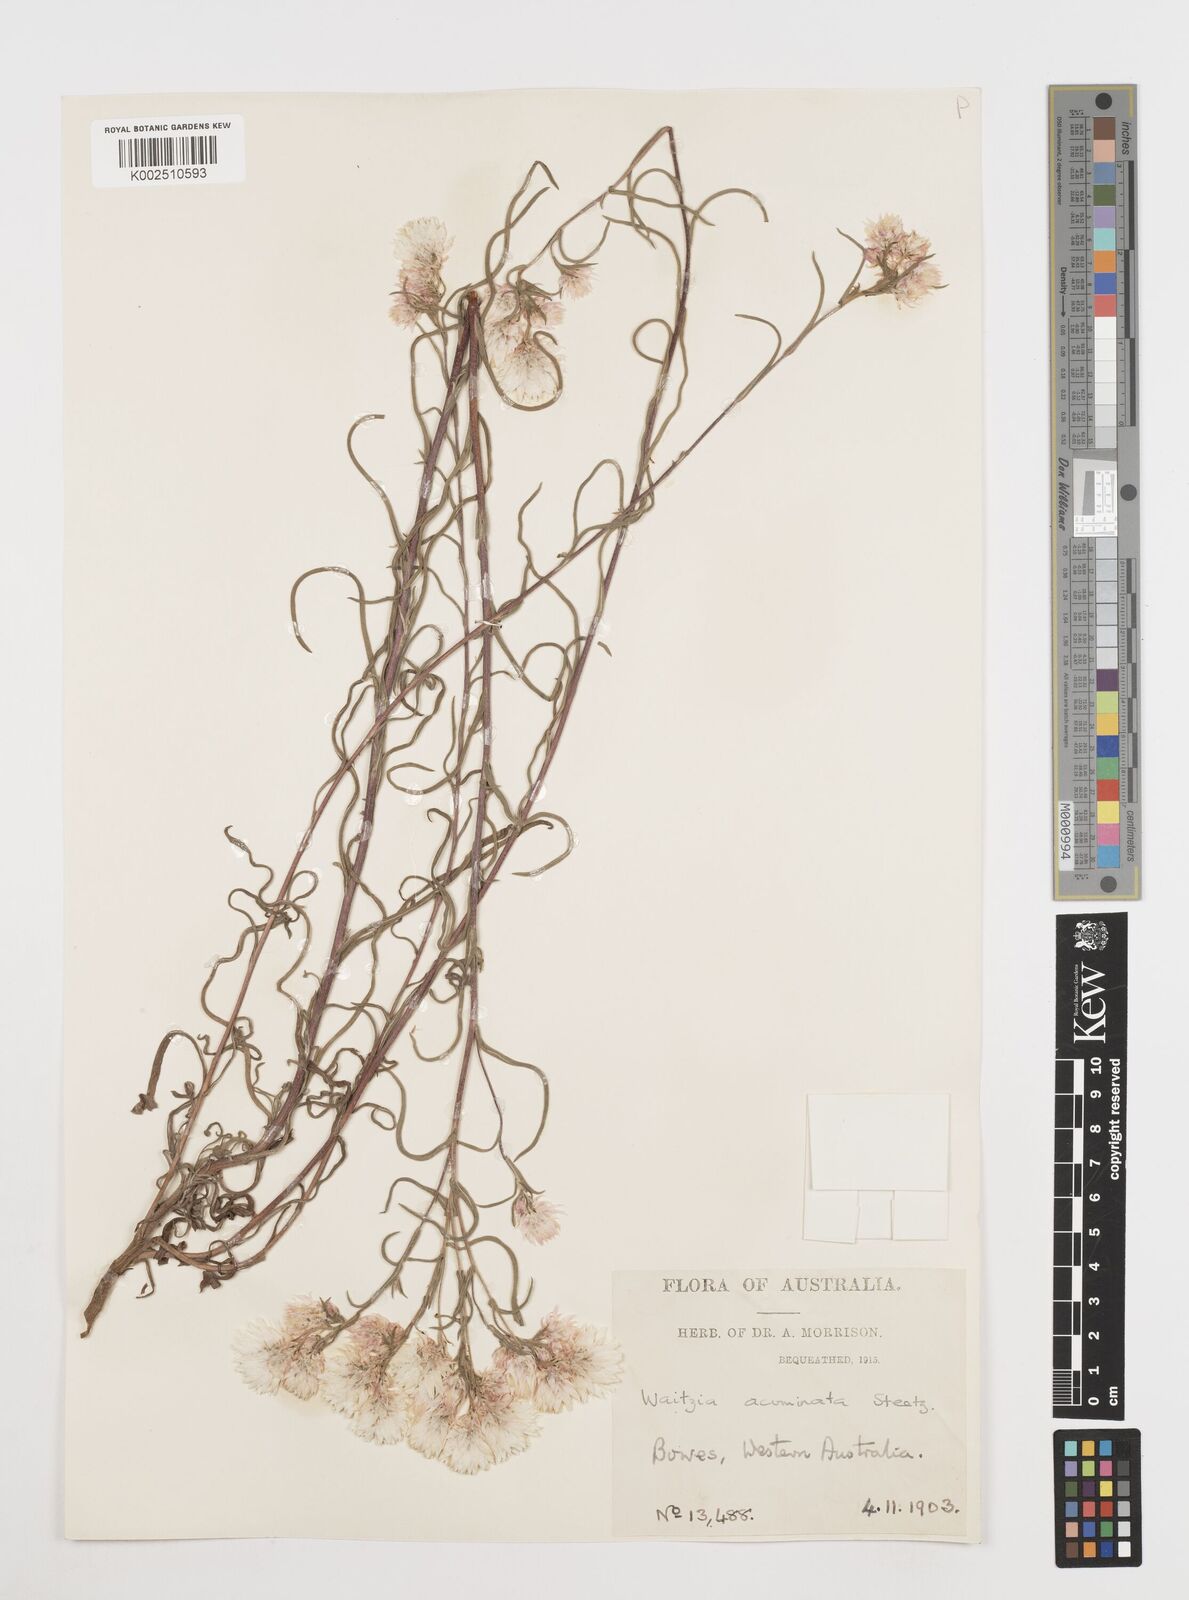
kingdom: Plantae
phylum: Tracheophyta
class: Magnoliopsida
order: Asterales
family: Asteraceae
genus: Waitzia
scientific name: Waitzia acuminata
